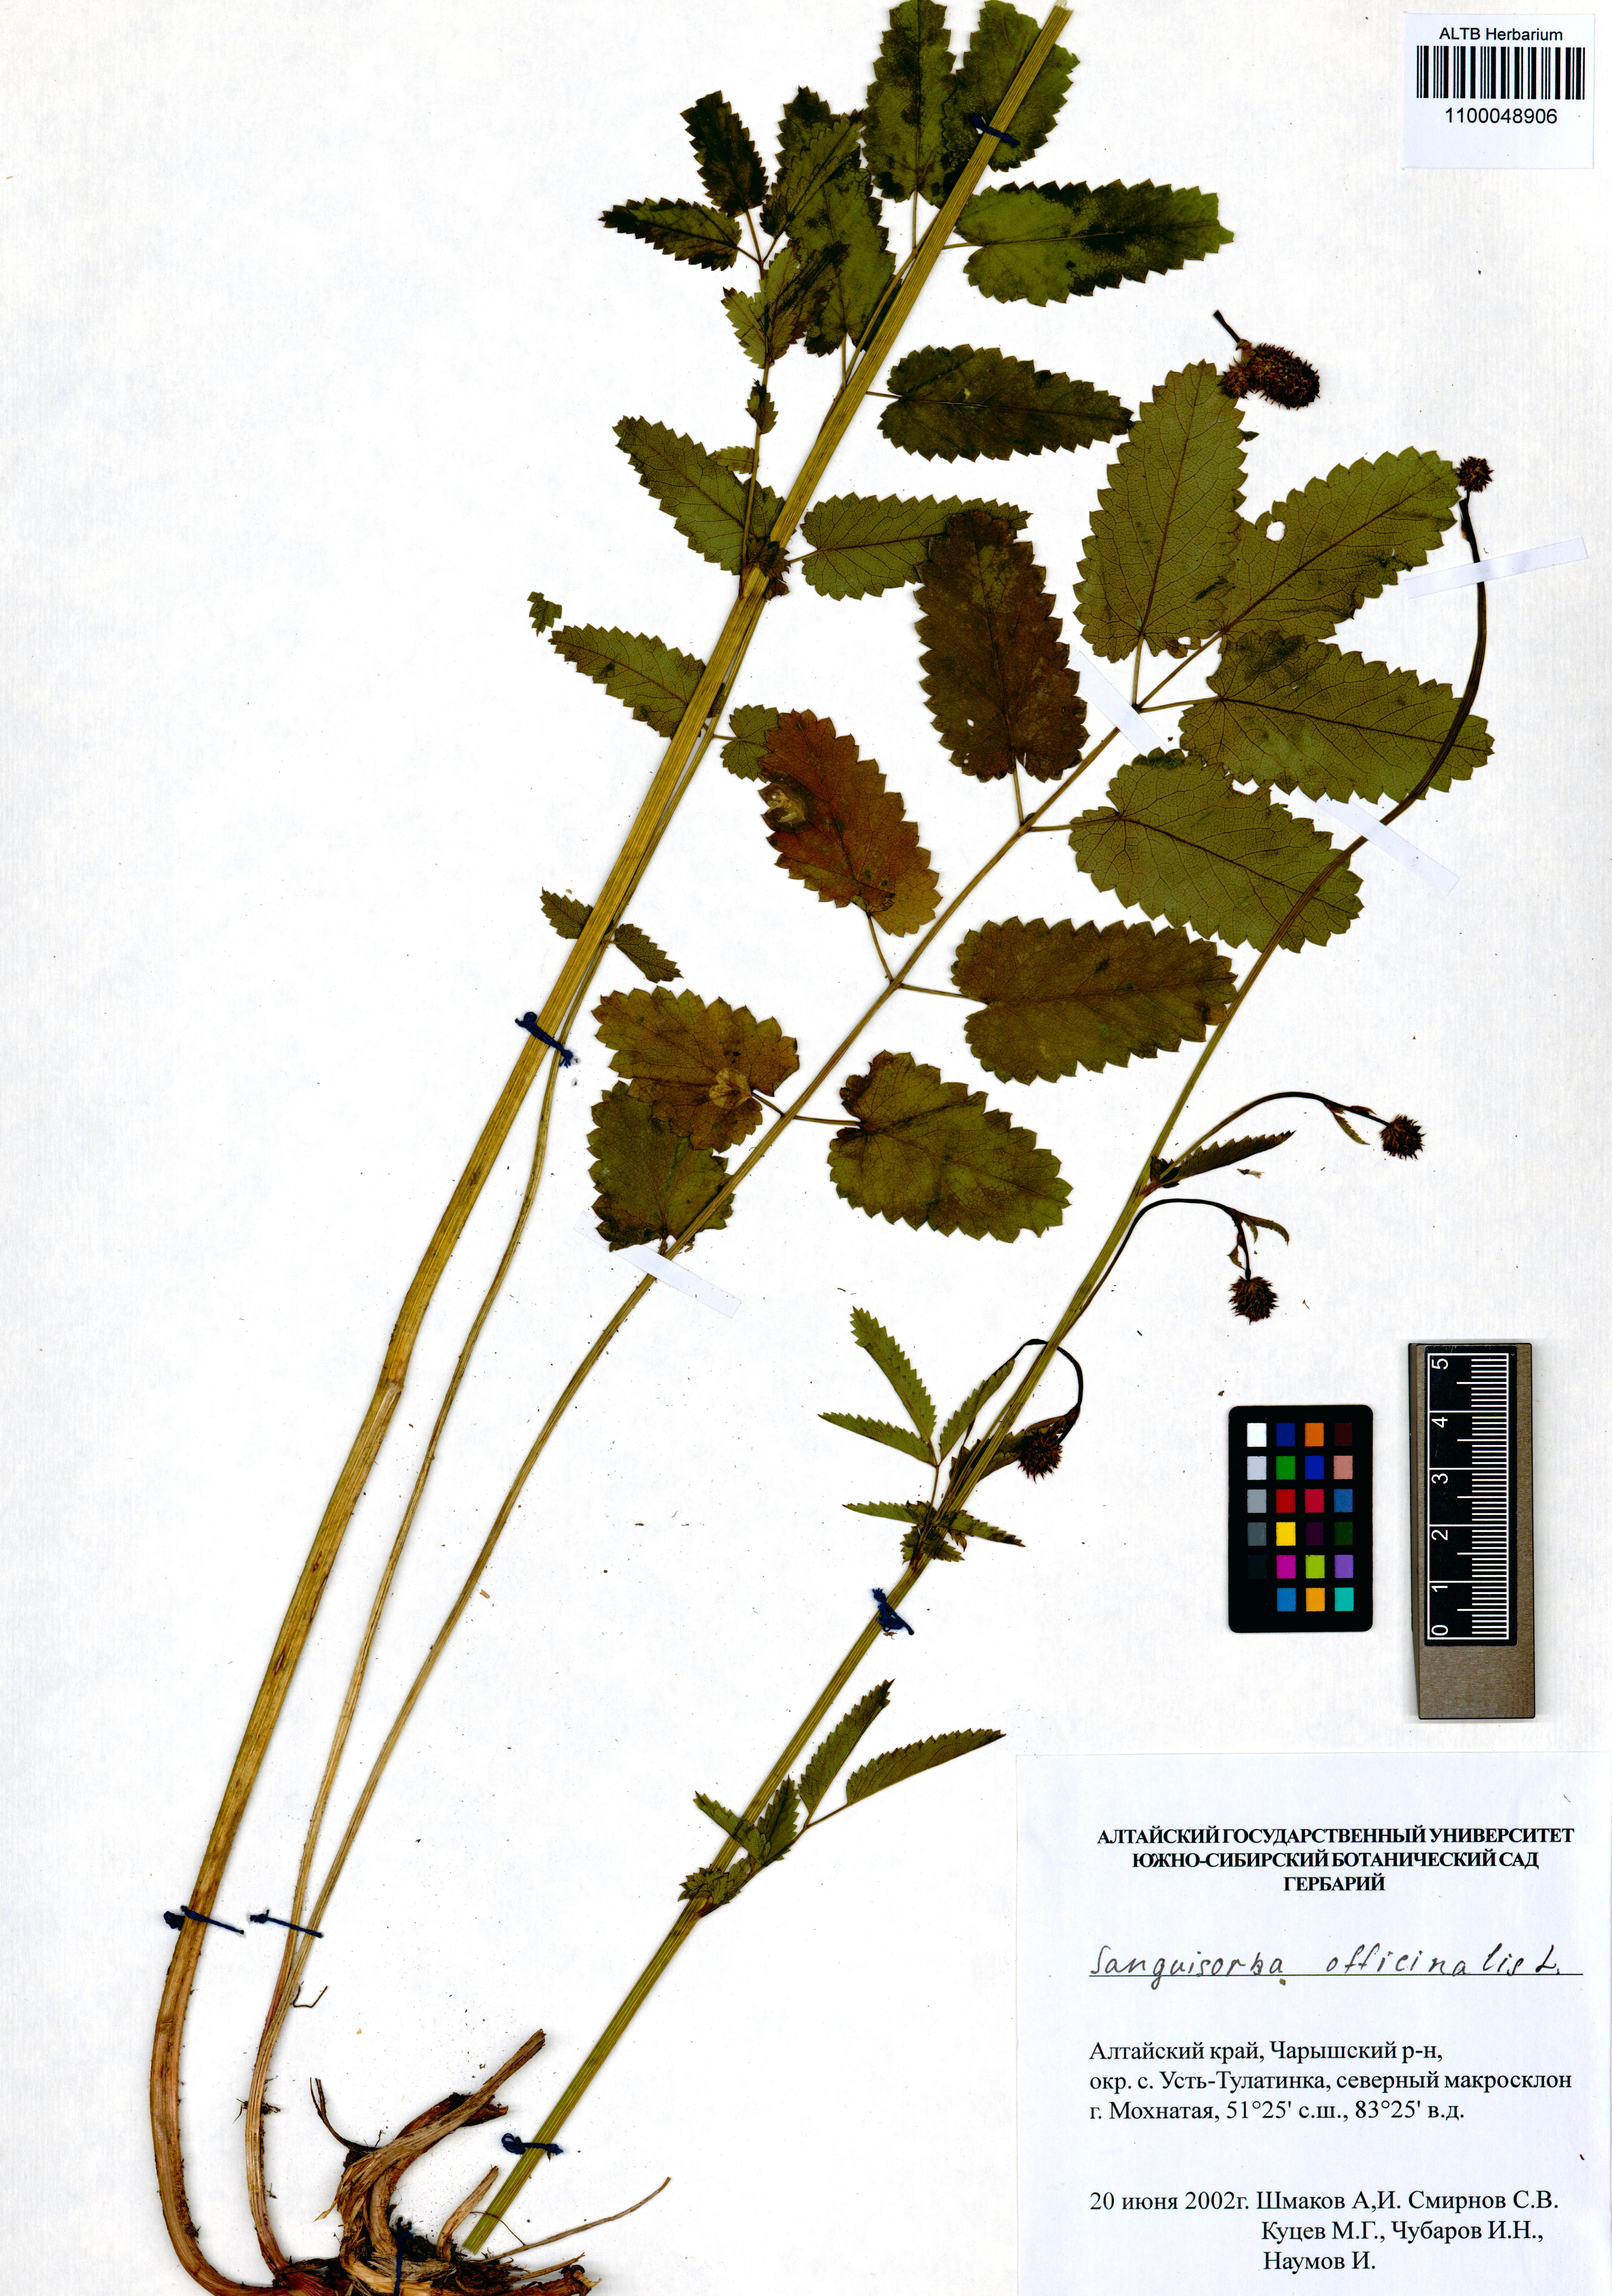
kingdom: Plantae
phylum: Tracheophyta
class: Magnoliopsida
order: Rosales
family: Rosaceae
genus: Sanguisorba
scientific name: Sanguisorba officinalis
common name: Great burnet
